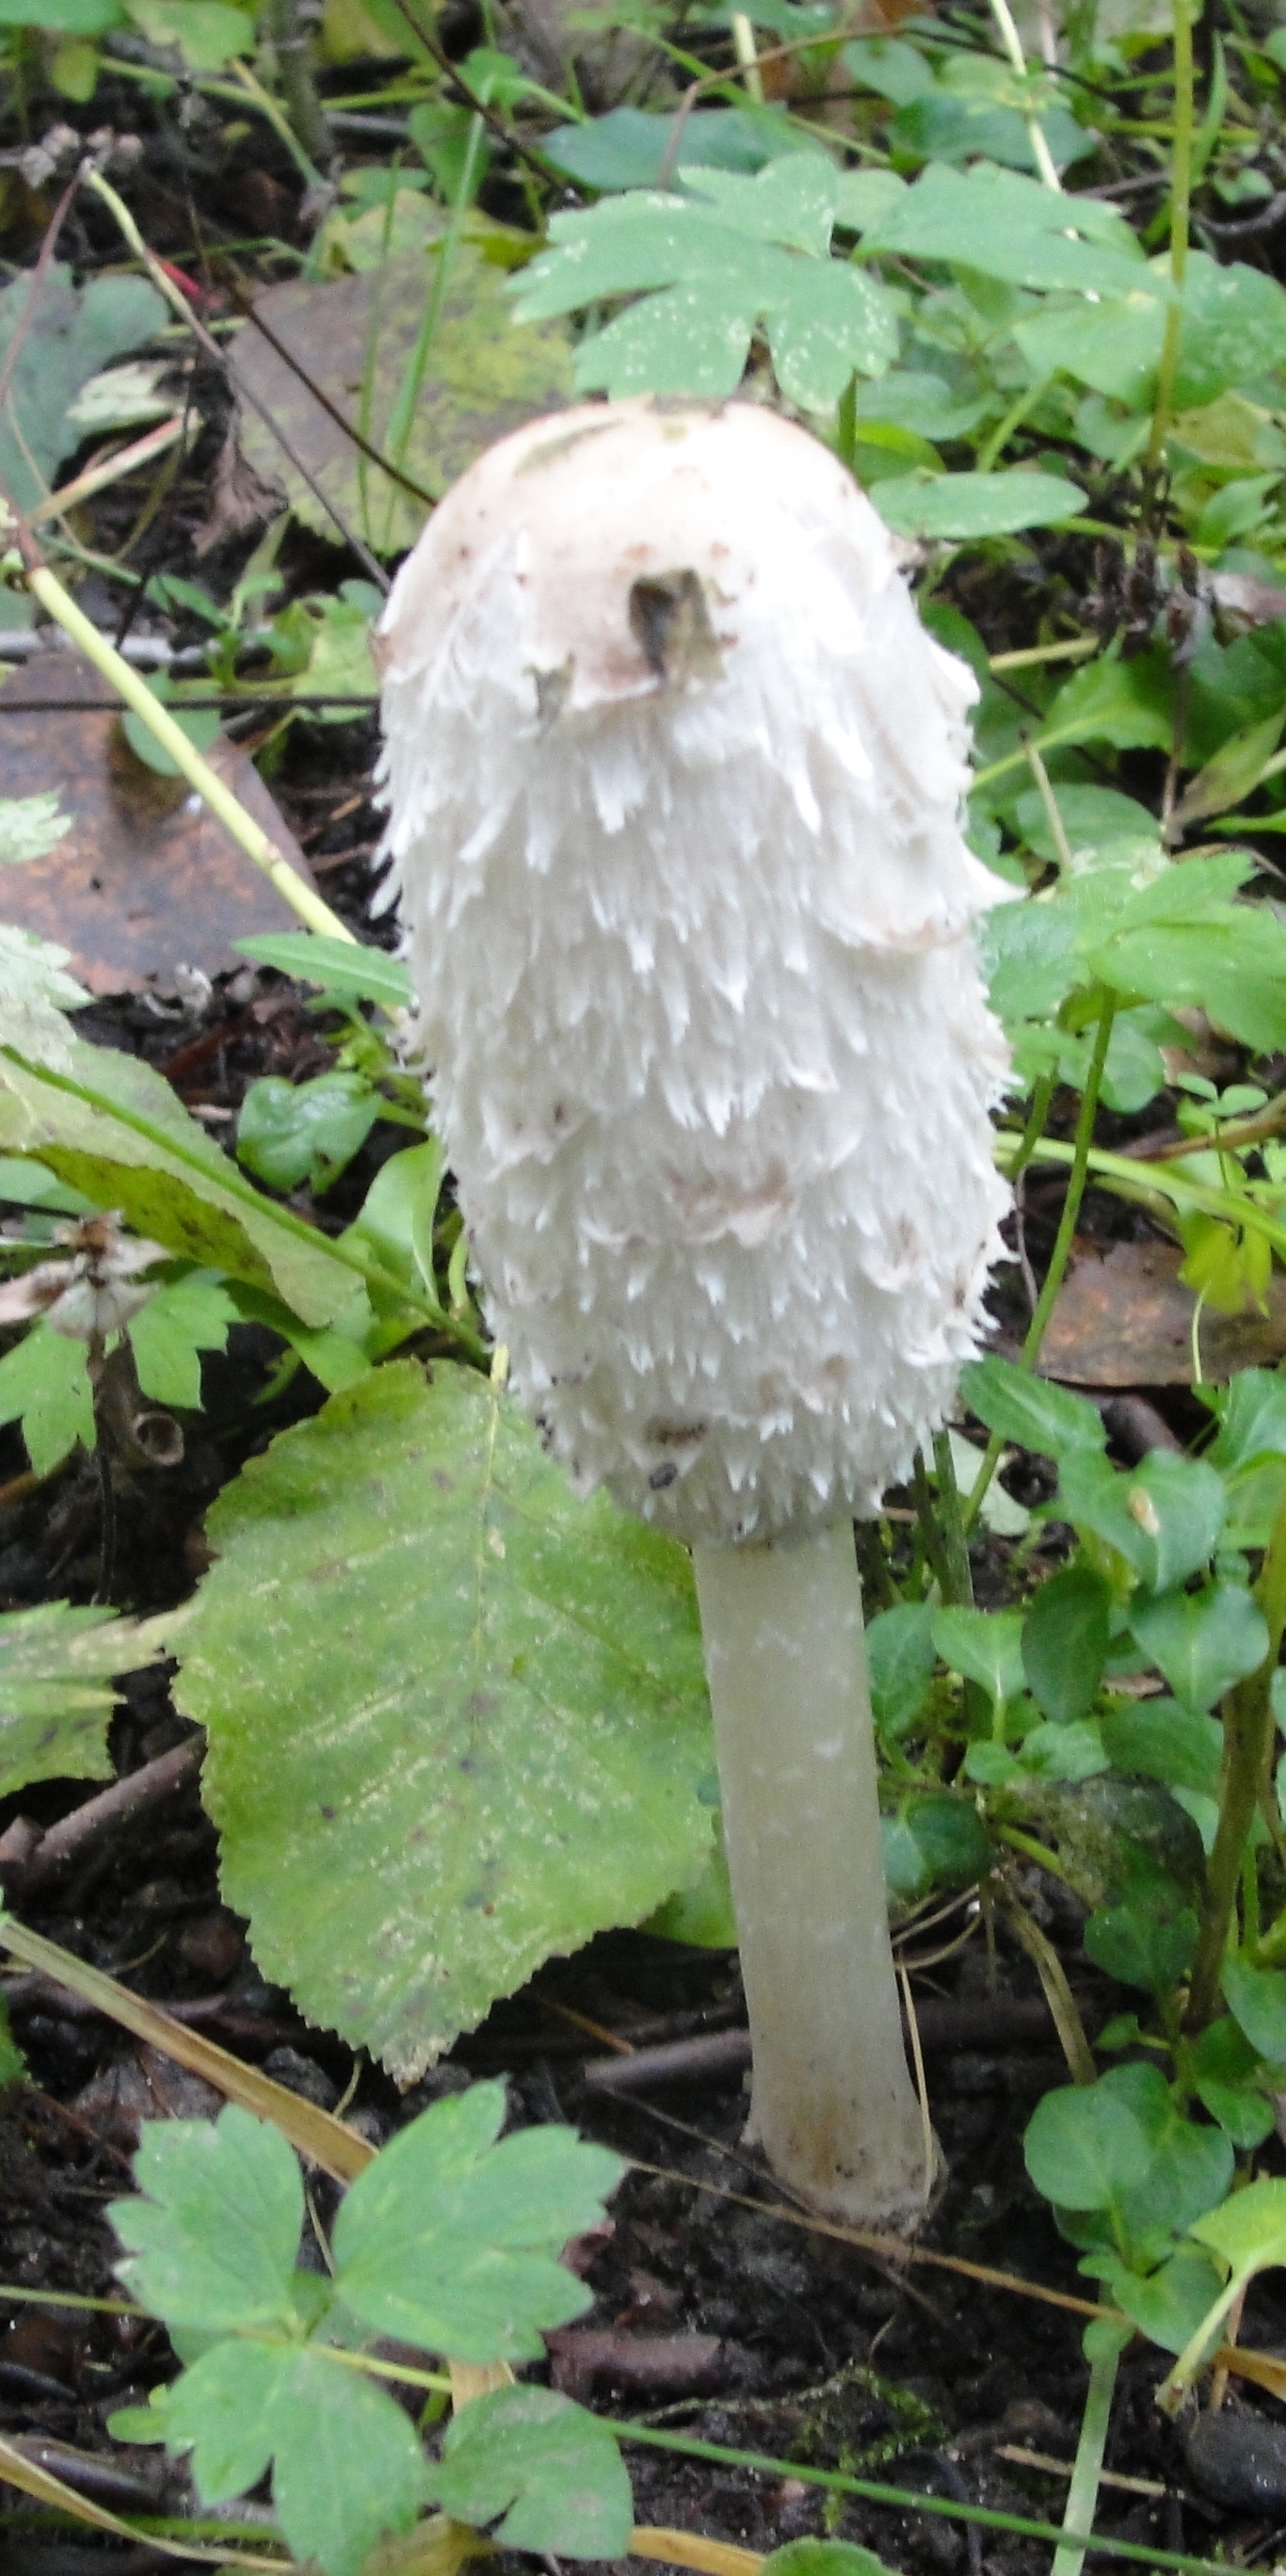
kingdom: Fungi
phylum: Basidiomycota
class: Agaricomycetes
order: Agaricales
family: Agaricaceae
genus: Coprinus
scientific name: Coprinus comatus
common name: Lawyer's wig
